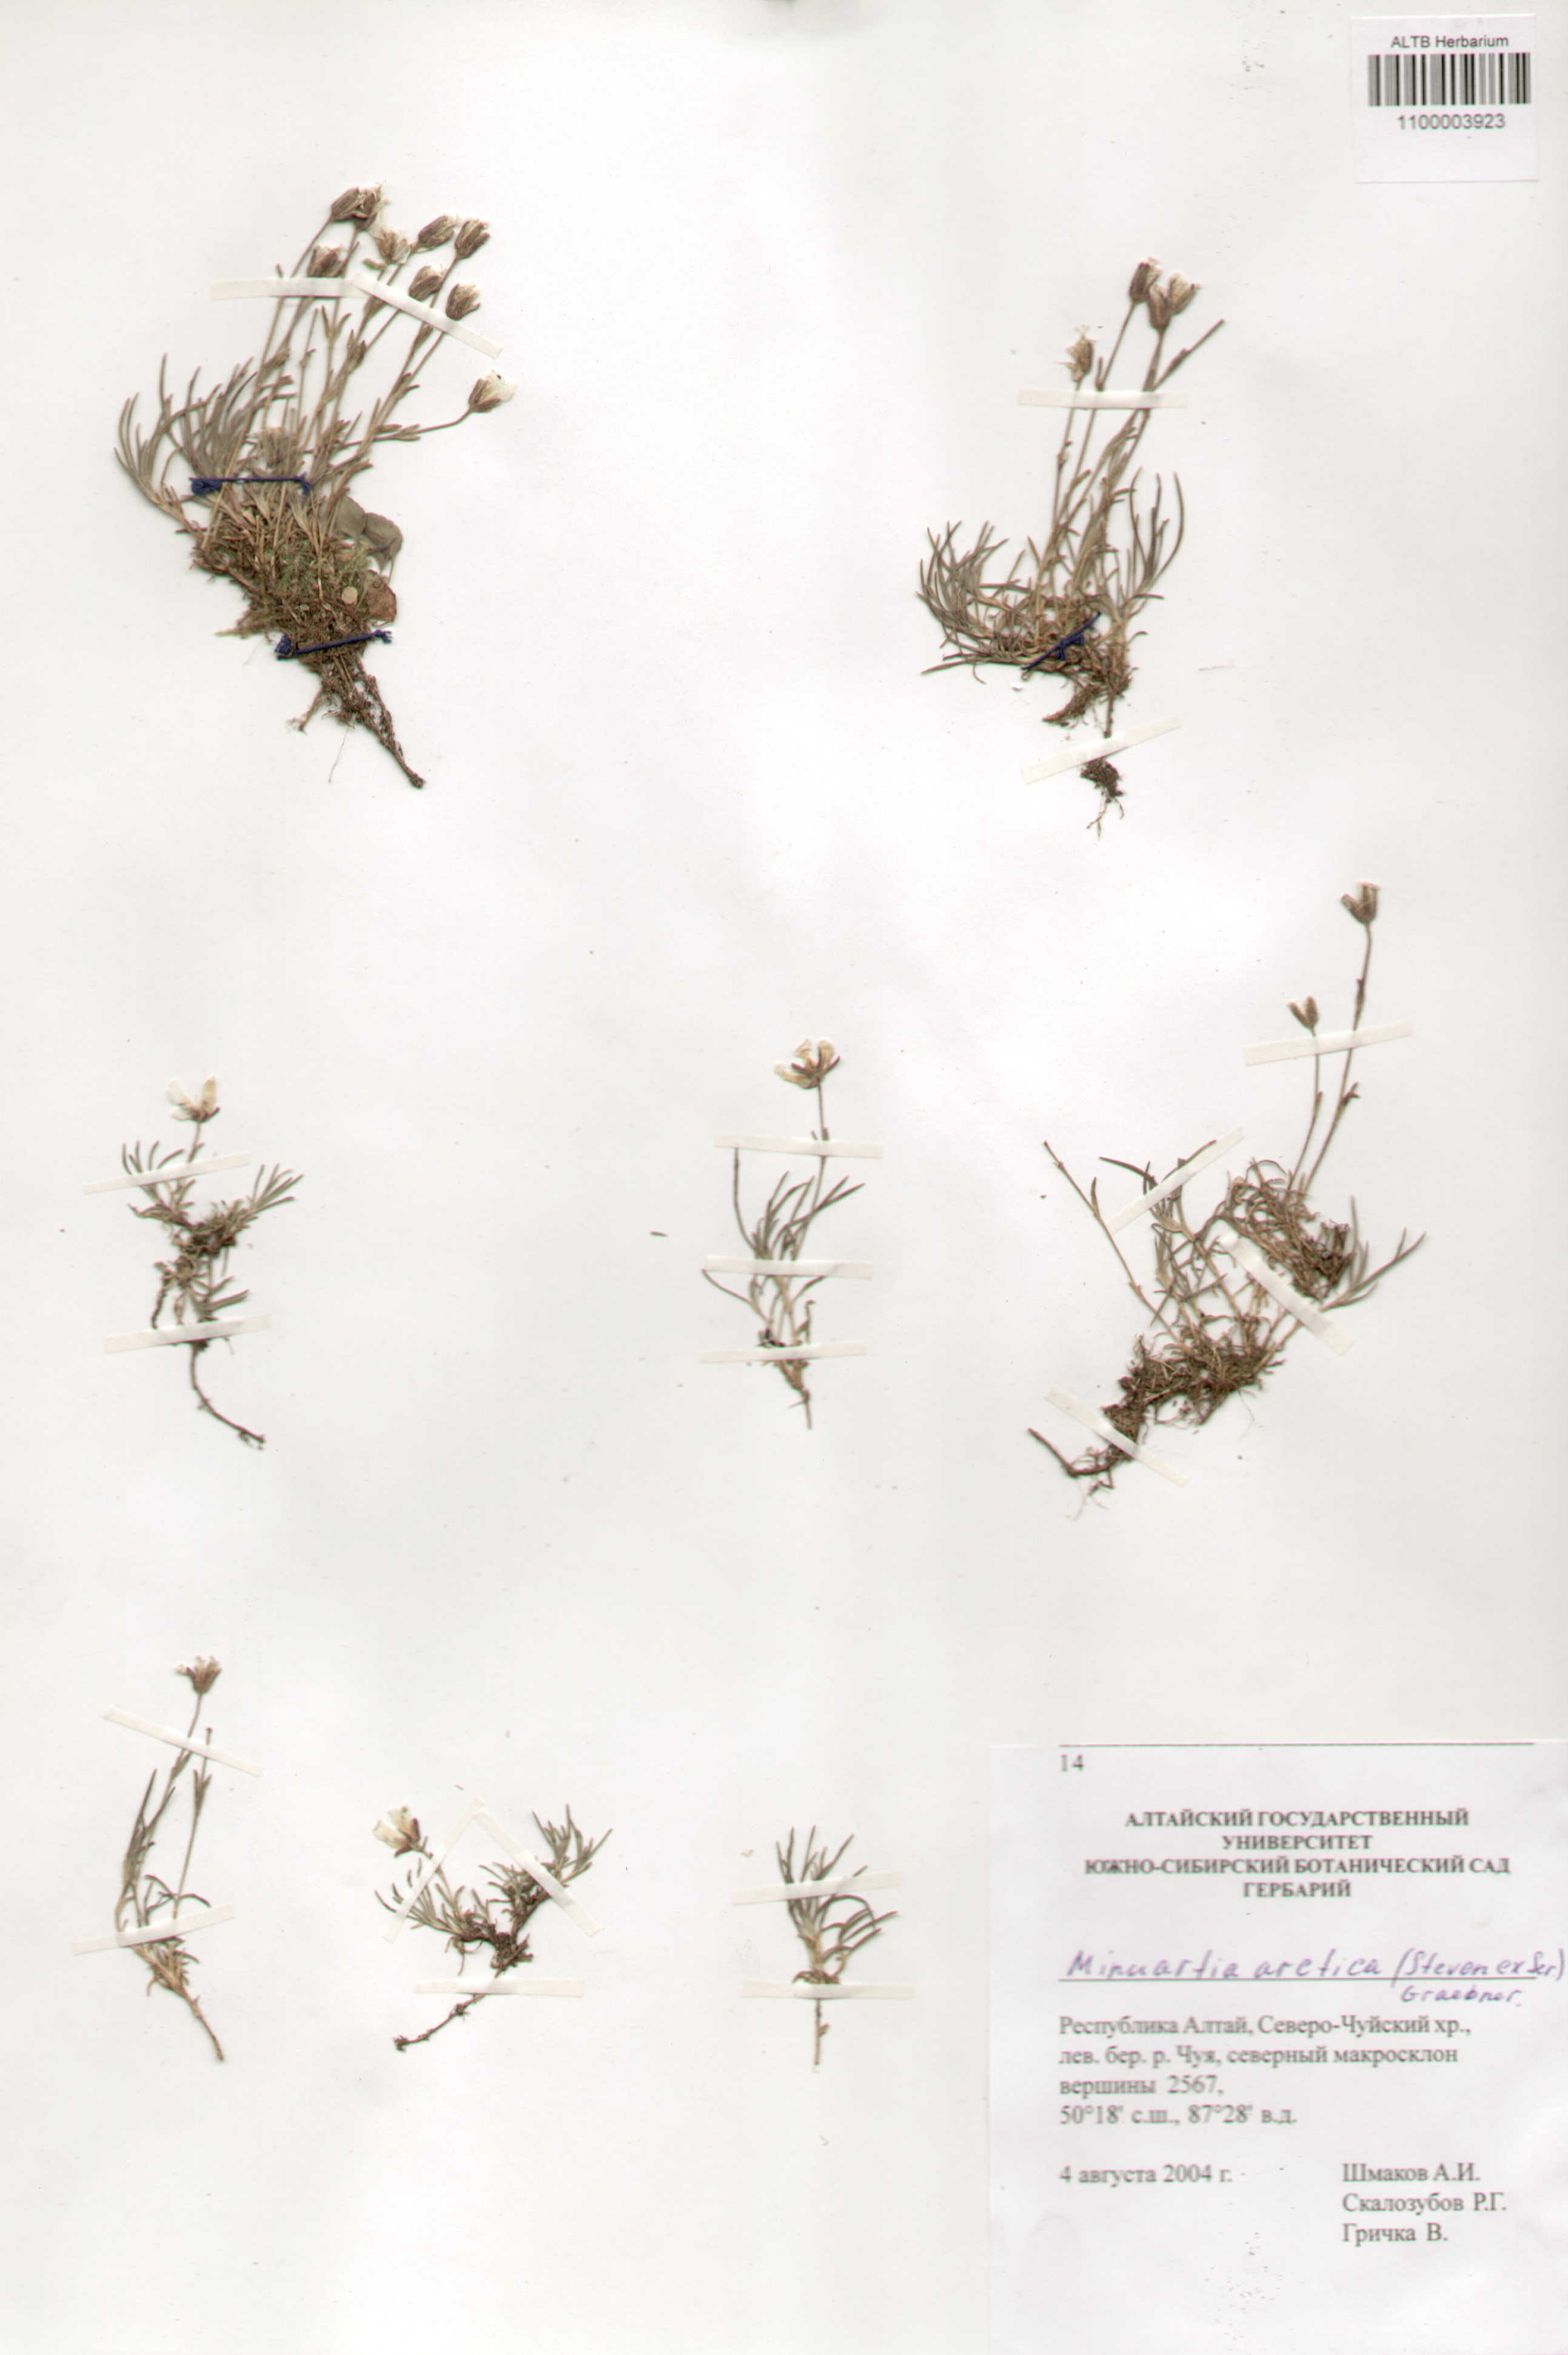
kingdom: Plantae
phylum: Tracheophyta
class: Magnoliopsida
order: Caryophyllales
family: Caryophyllaceae
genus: Cherleria
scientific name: Cherleria arctica
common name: Arctic sandwort
